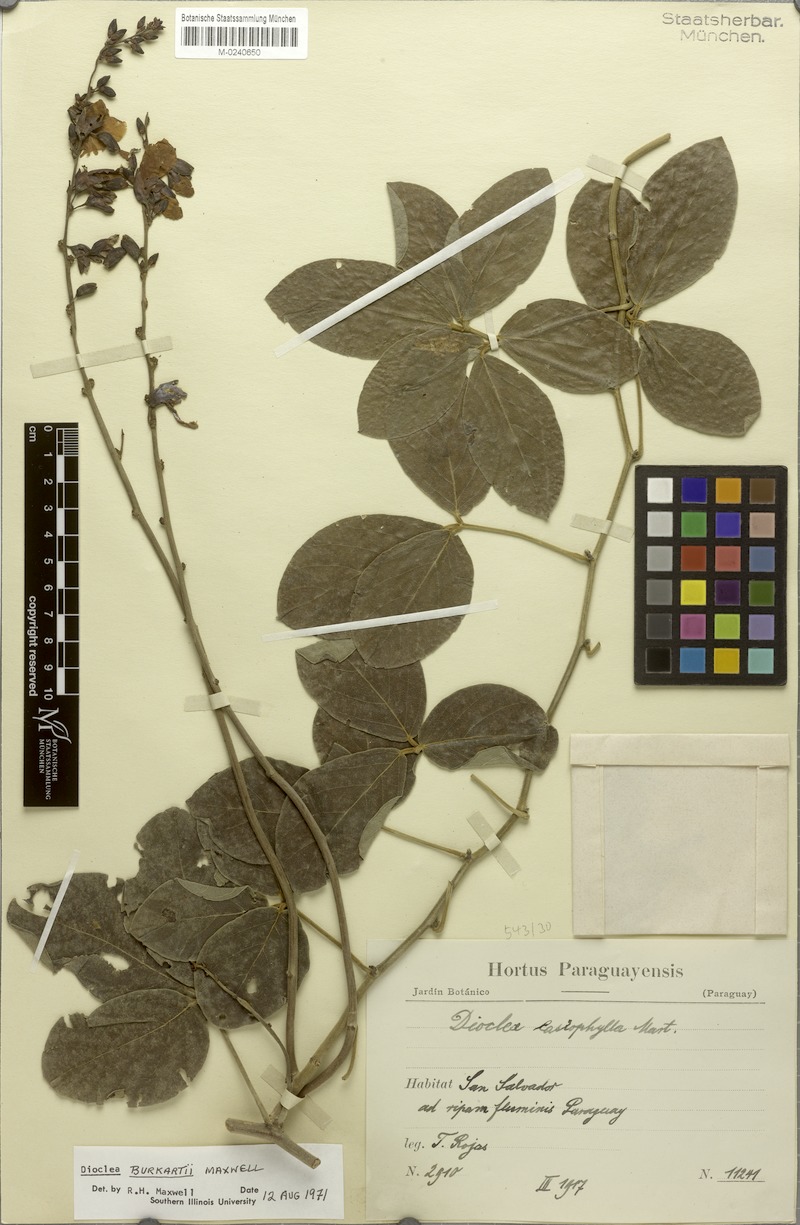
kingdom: Plantae
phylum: Tracheophyta
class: Magnoliopsida
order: Fabales
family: Fabaceae
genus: Dioclea
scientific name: Dioclea burkartii
